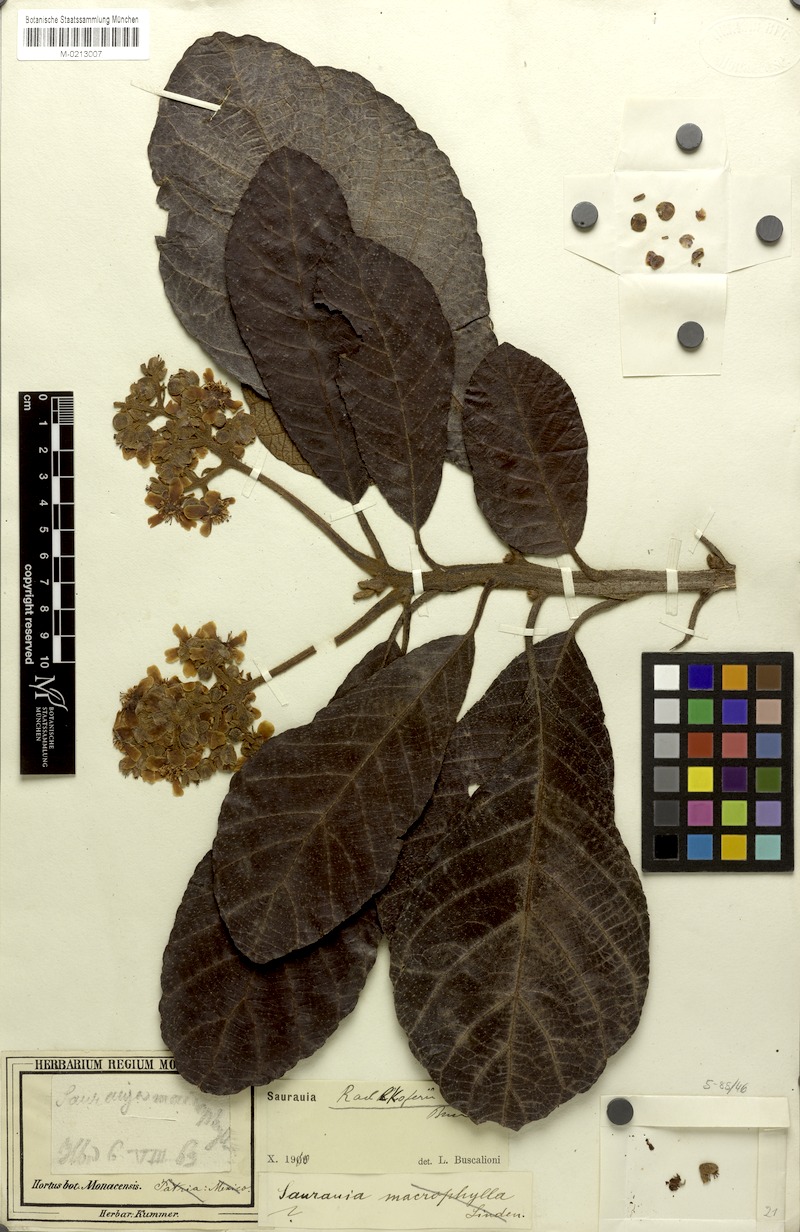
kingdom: Plantae
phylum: Tracheophyta
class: Magnoliopsida
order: Ericales
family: Actinidiaceae
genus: Saurauia
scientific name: Saurauia radlkoferi
